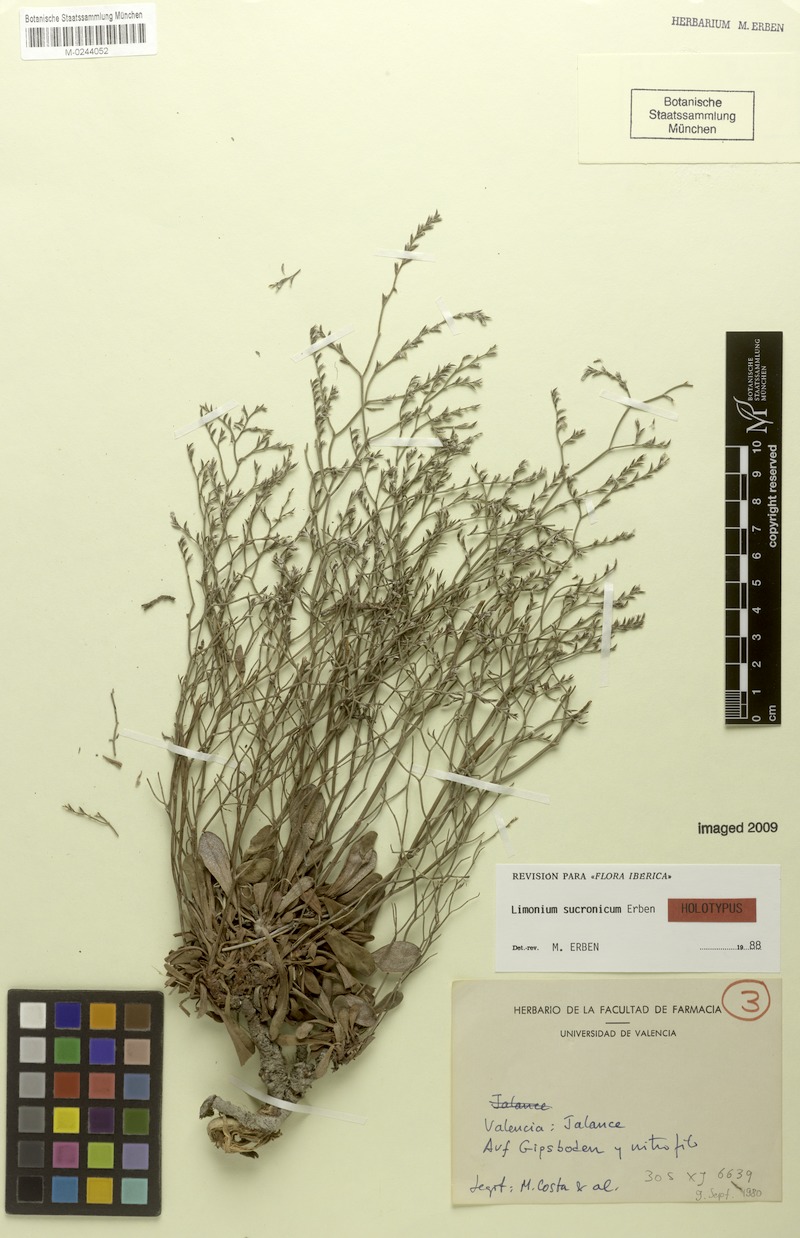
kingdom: Plantae
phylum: Tracheophyta
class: Magnoliopsida
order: Caryophyllales
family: Plumbaginaceae
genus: Limonium
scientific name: Limonium sucronicum
